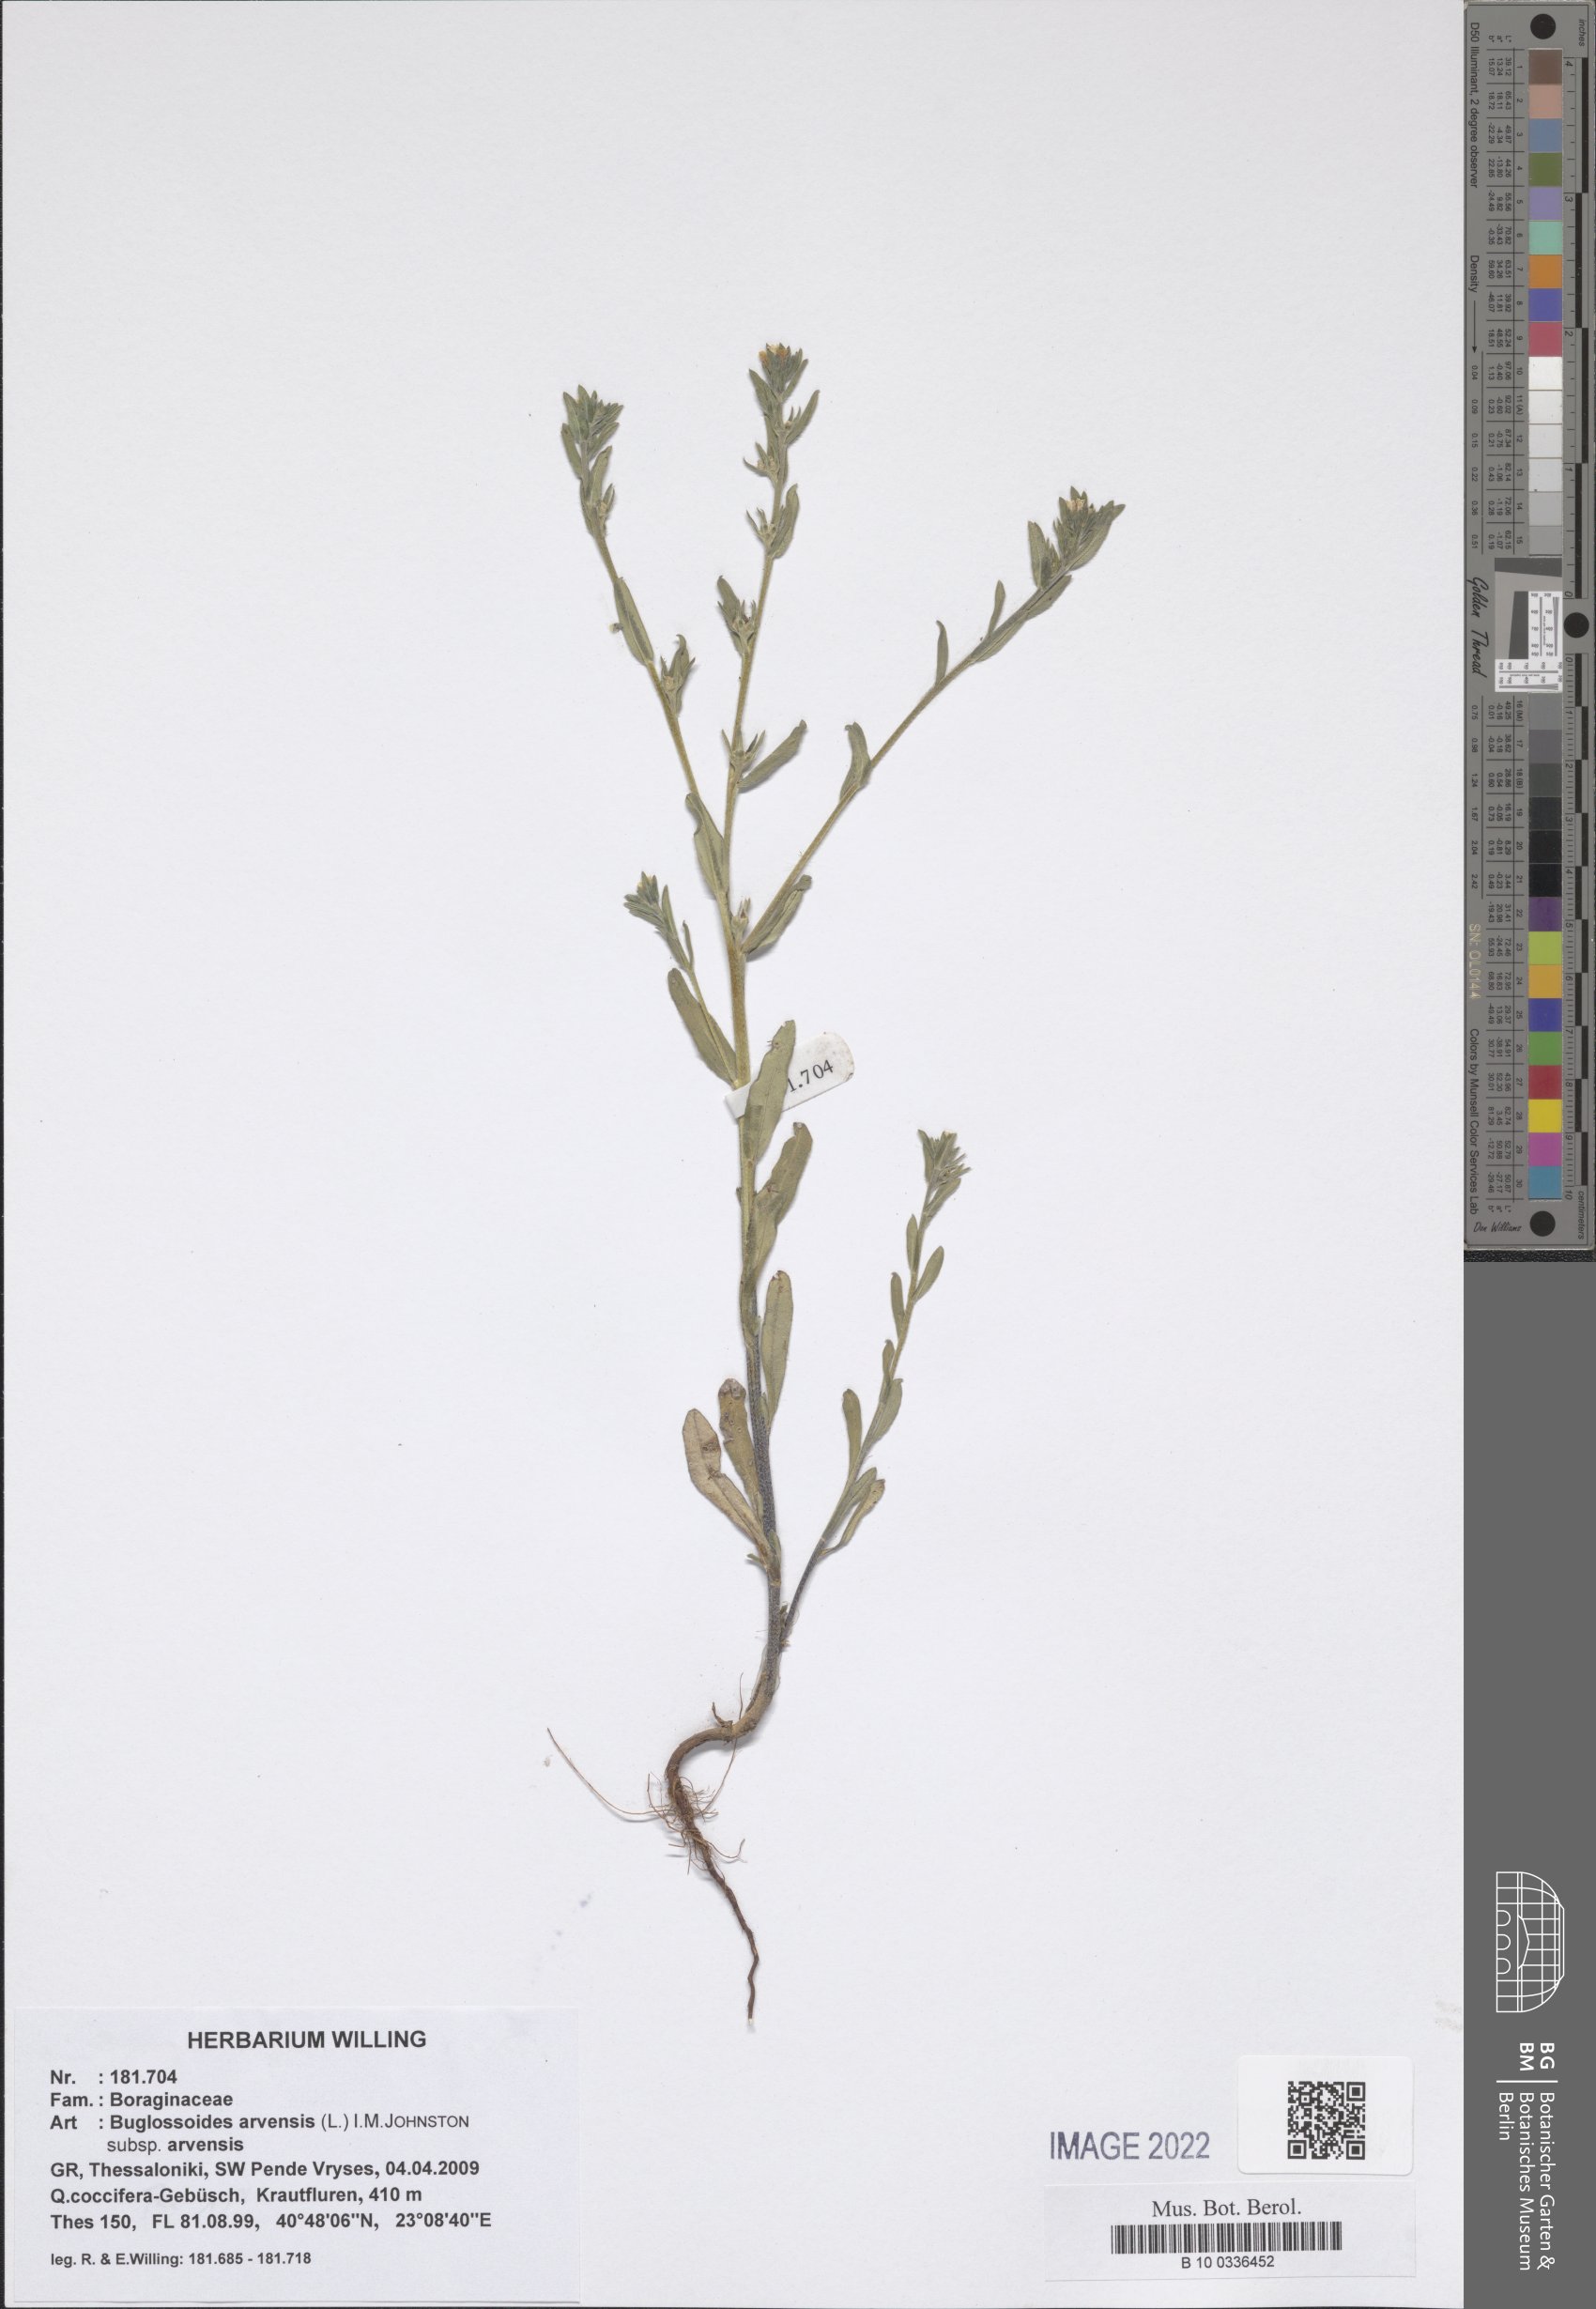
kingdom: Plantae
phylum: Tracheophyta
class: Magnoliopsida
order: Boraginales
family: Boraginaceae
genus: Buglossoides
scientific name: Buglossoides arvensis
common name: Corn gromwell
